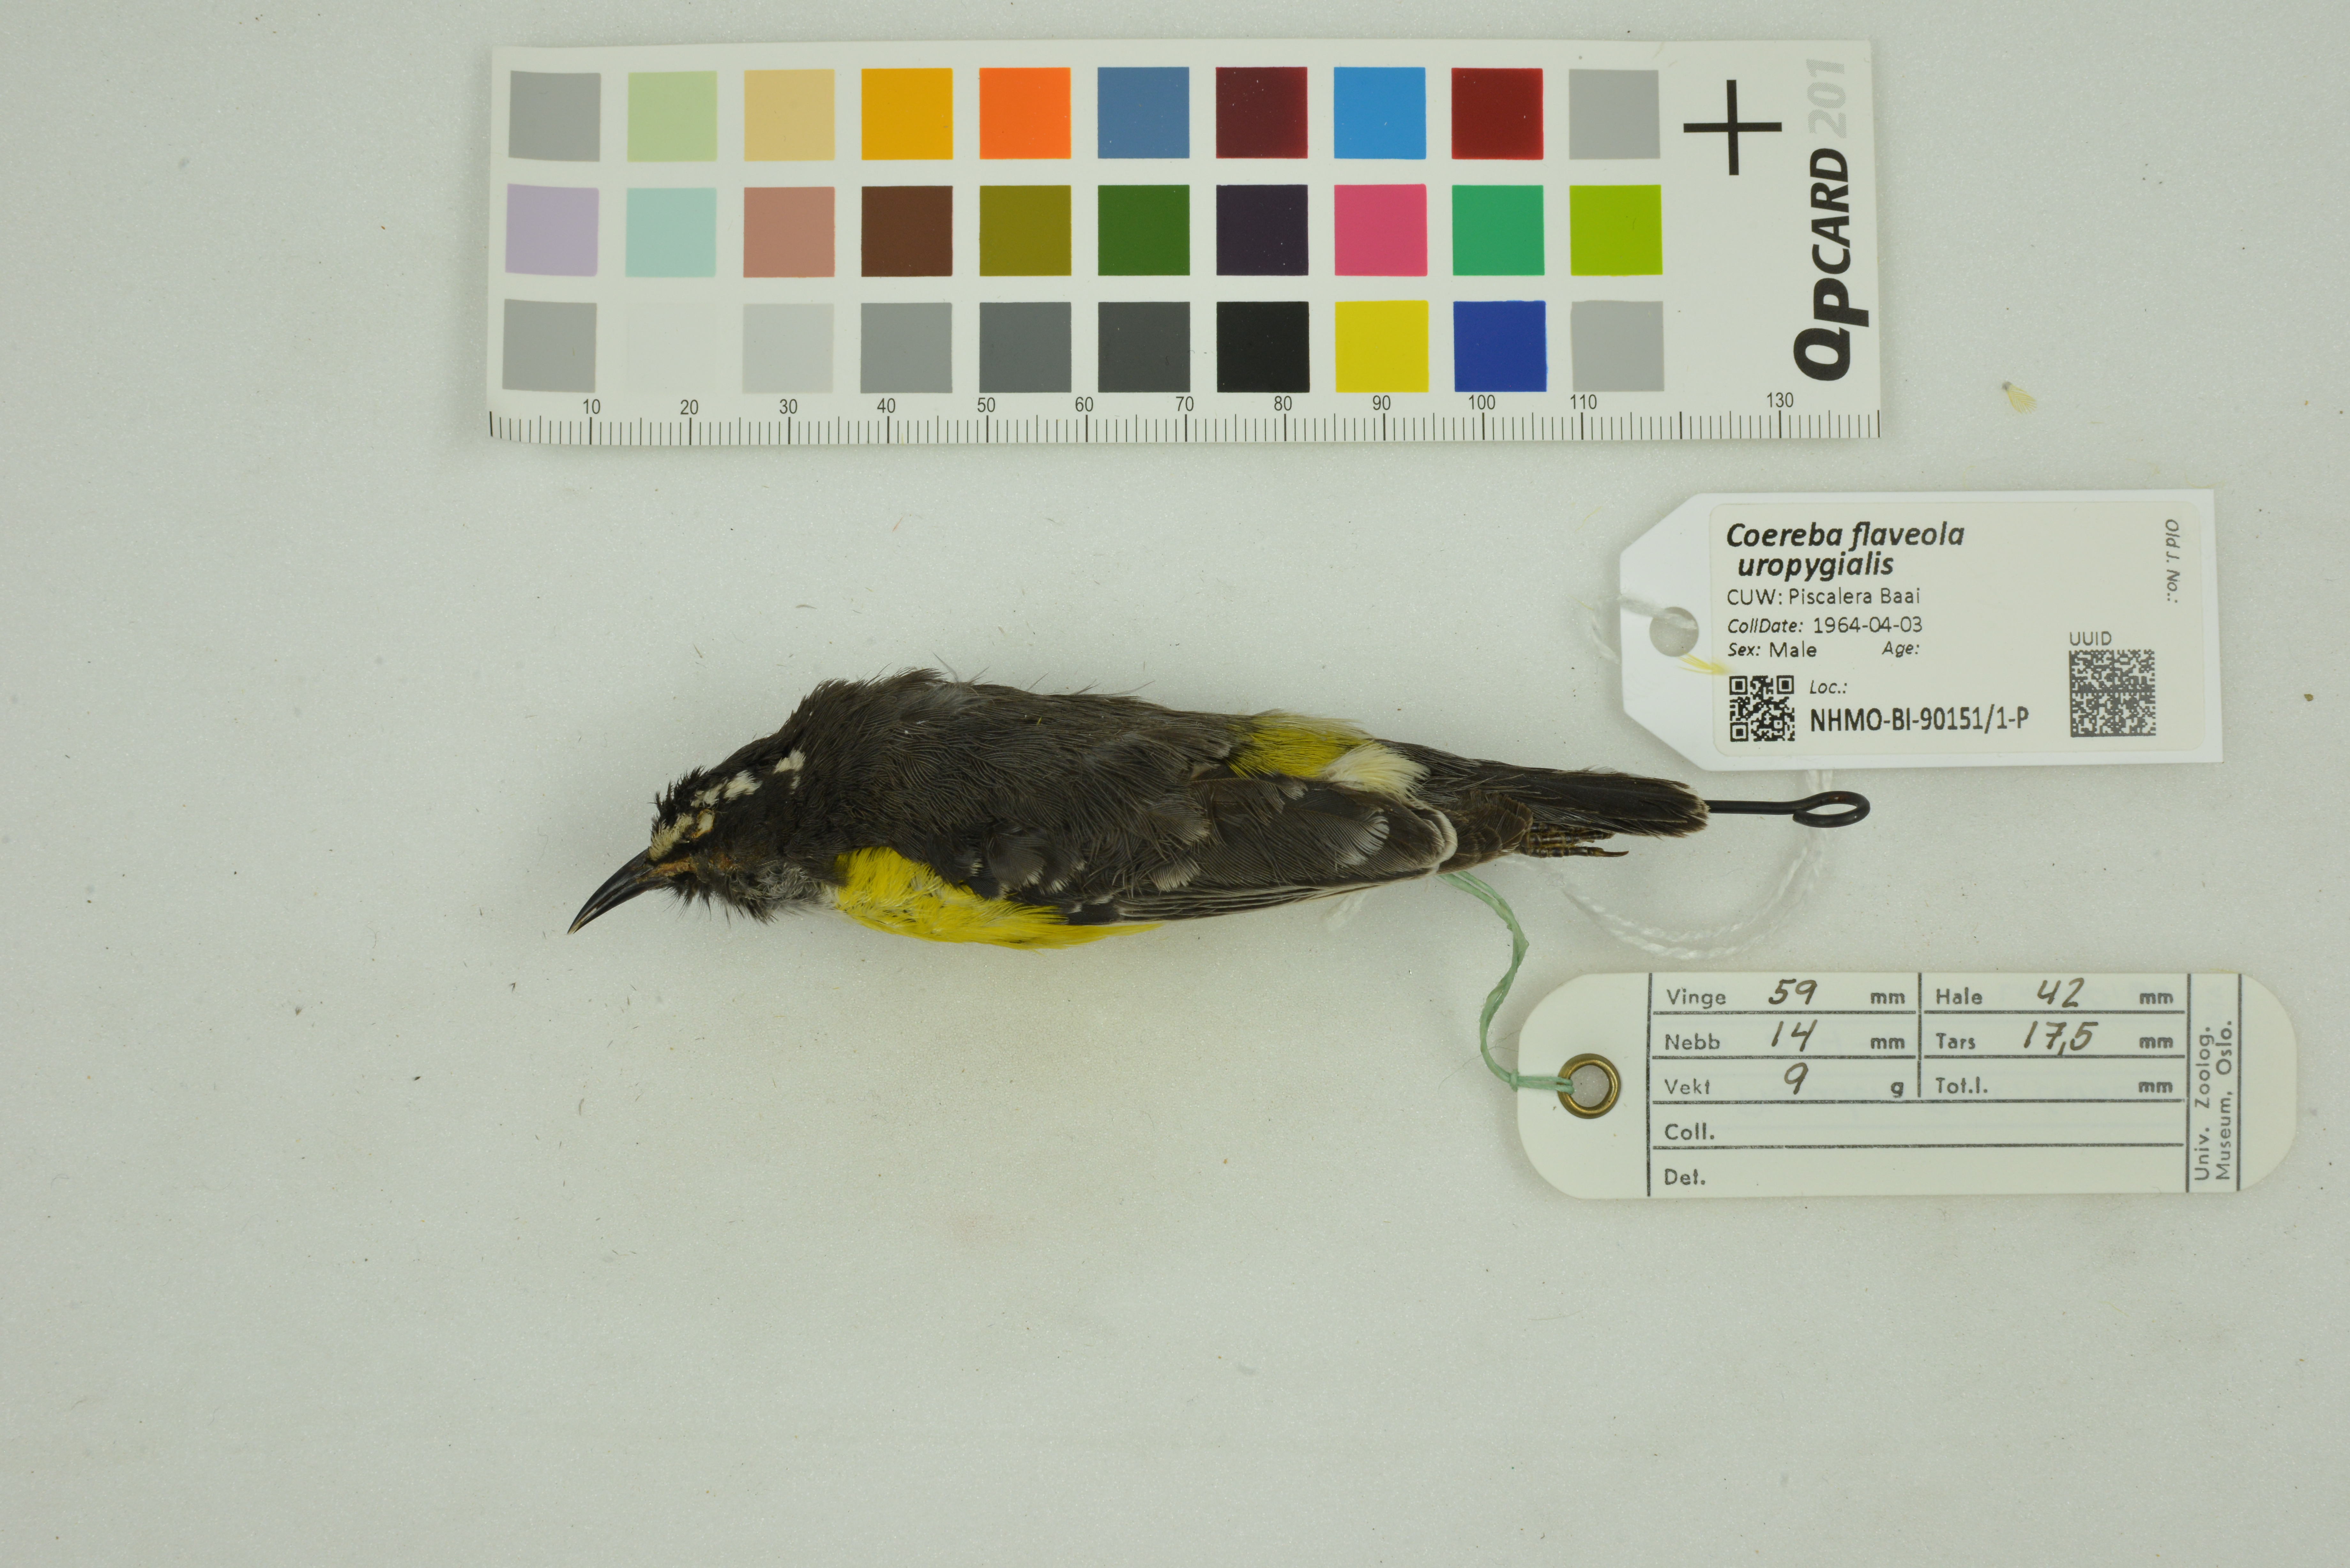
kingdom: Animalia
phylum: Chordata
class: Aves
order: Passeriformes
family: Thraupidae
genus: Coereba
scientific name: Coereba flaveola
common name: Bananaquit
